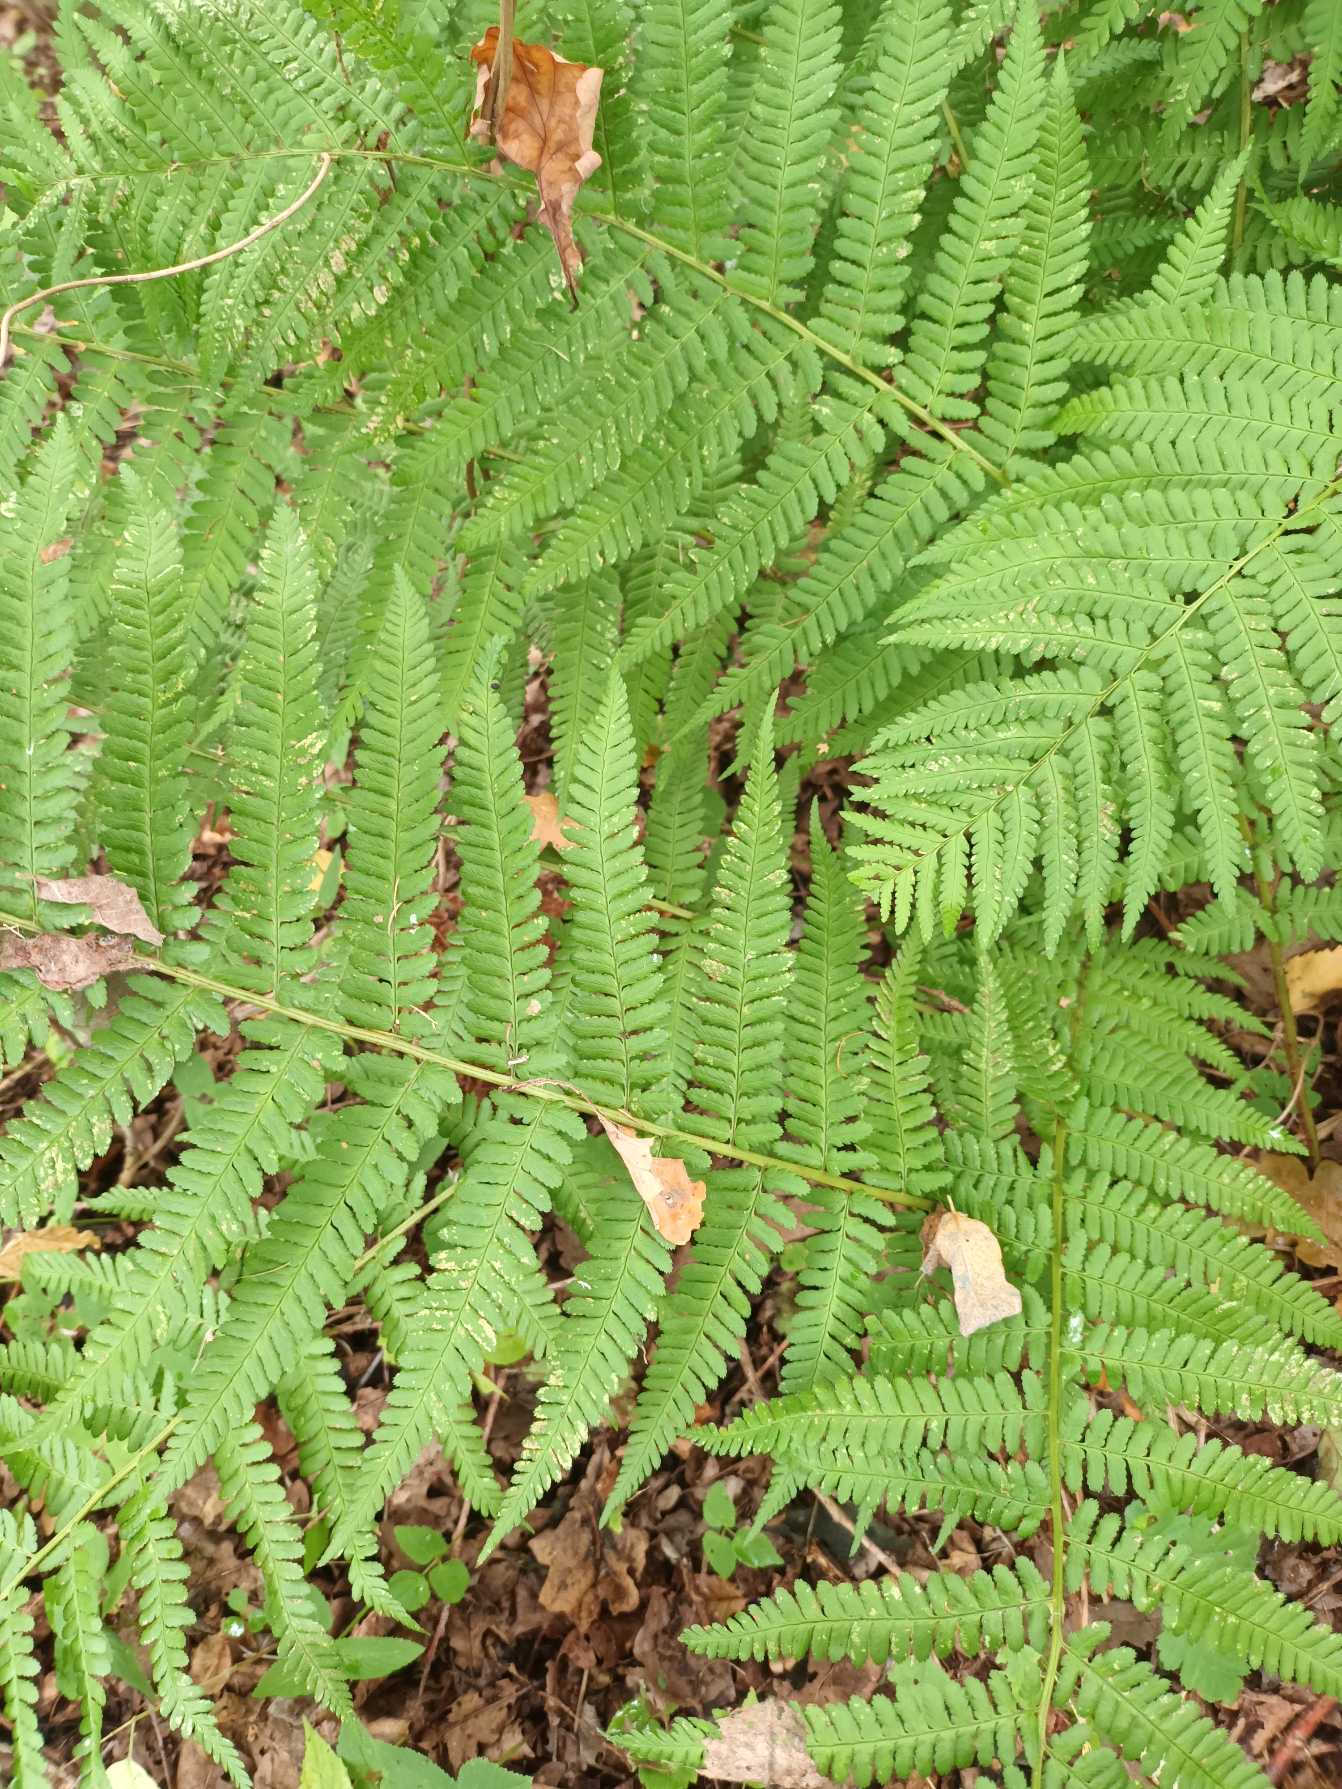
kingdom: Plantae
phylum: Tracheophyta
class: Polypodiopsida
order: Polypodiales
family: Dryopteridaceae
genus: Dryopteris
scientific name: Dryopteris filix-mas
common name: Almindelig mangeløv
